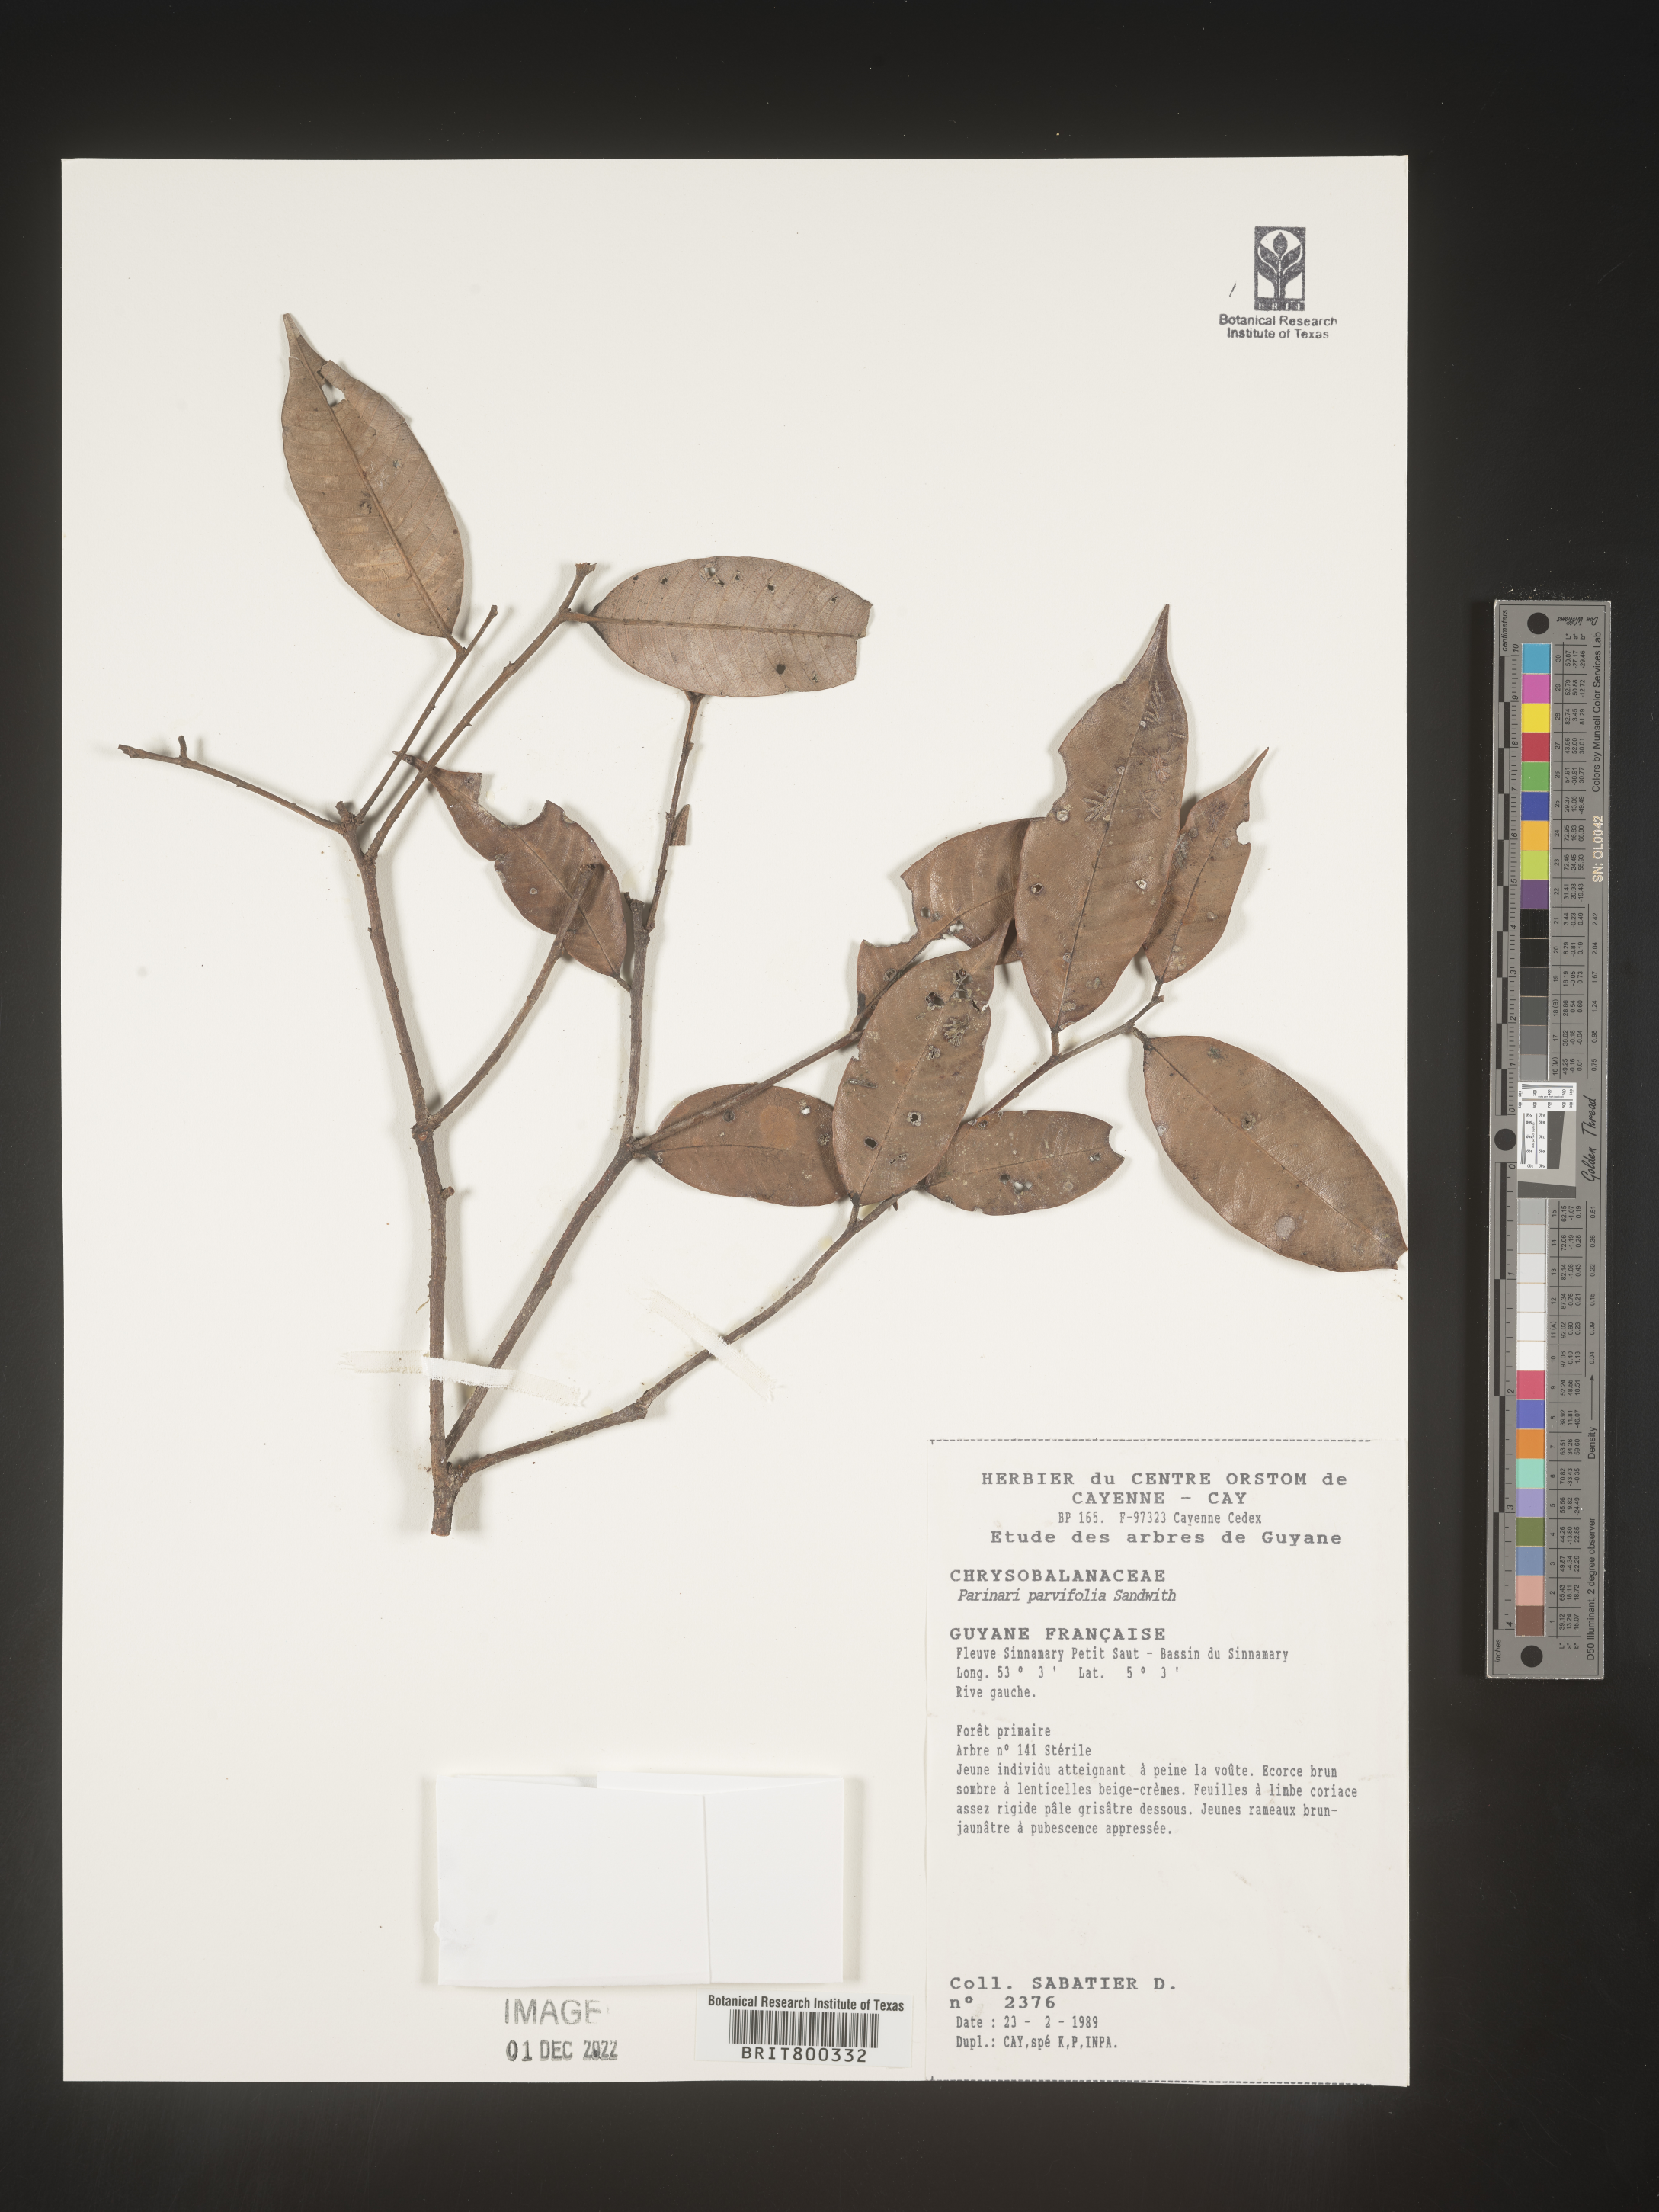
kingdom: Plantae
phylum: Tracheophyta
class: Magnoliopsida
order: Malpighiales
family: Chrysobalanaceae
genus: Parinari
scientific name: Parinari
